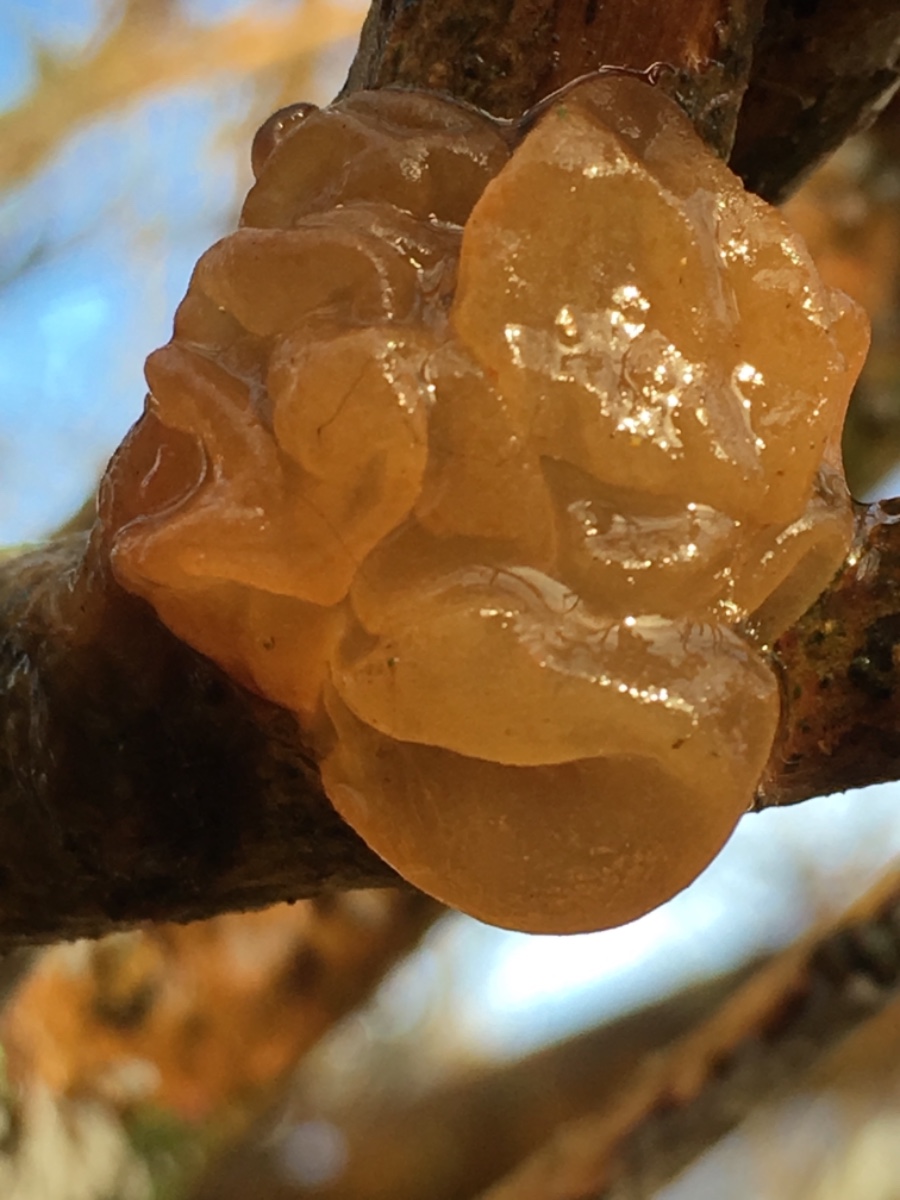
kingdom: Fungi
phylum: Basidiomycota
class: Tremellomycetes
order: Tremellales
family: Tremellaceae
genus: Tremella
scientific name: Tremella mesenterica
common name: gul bævresvamp
